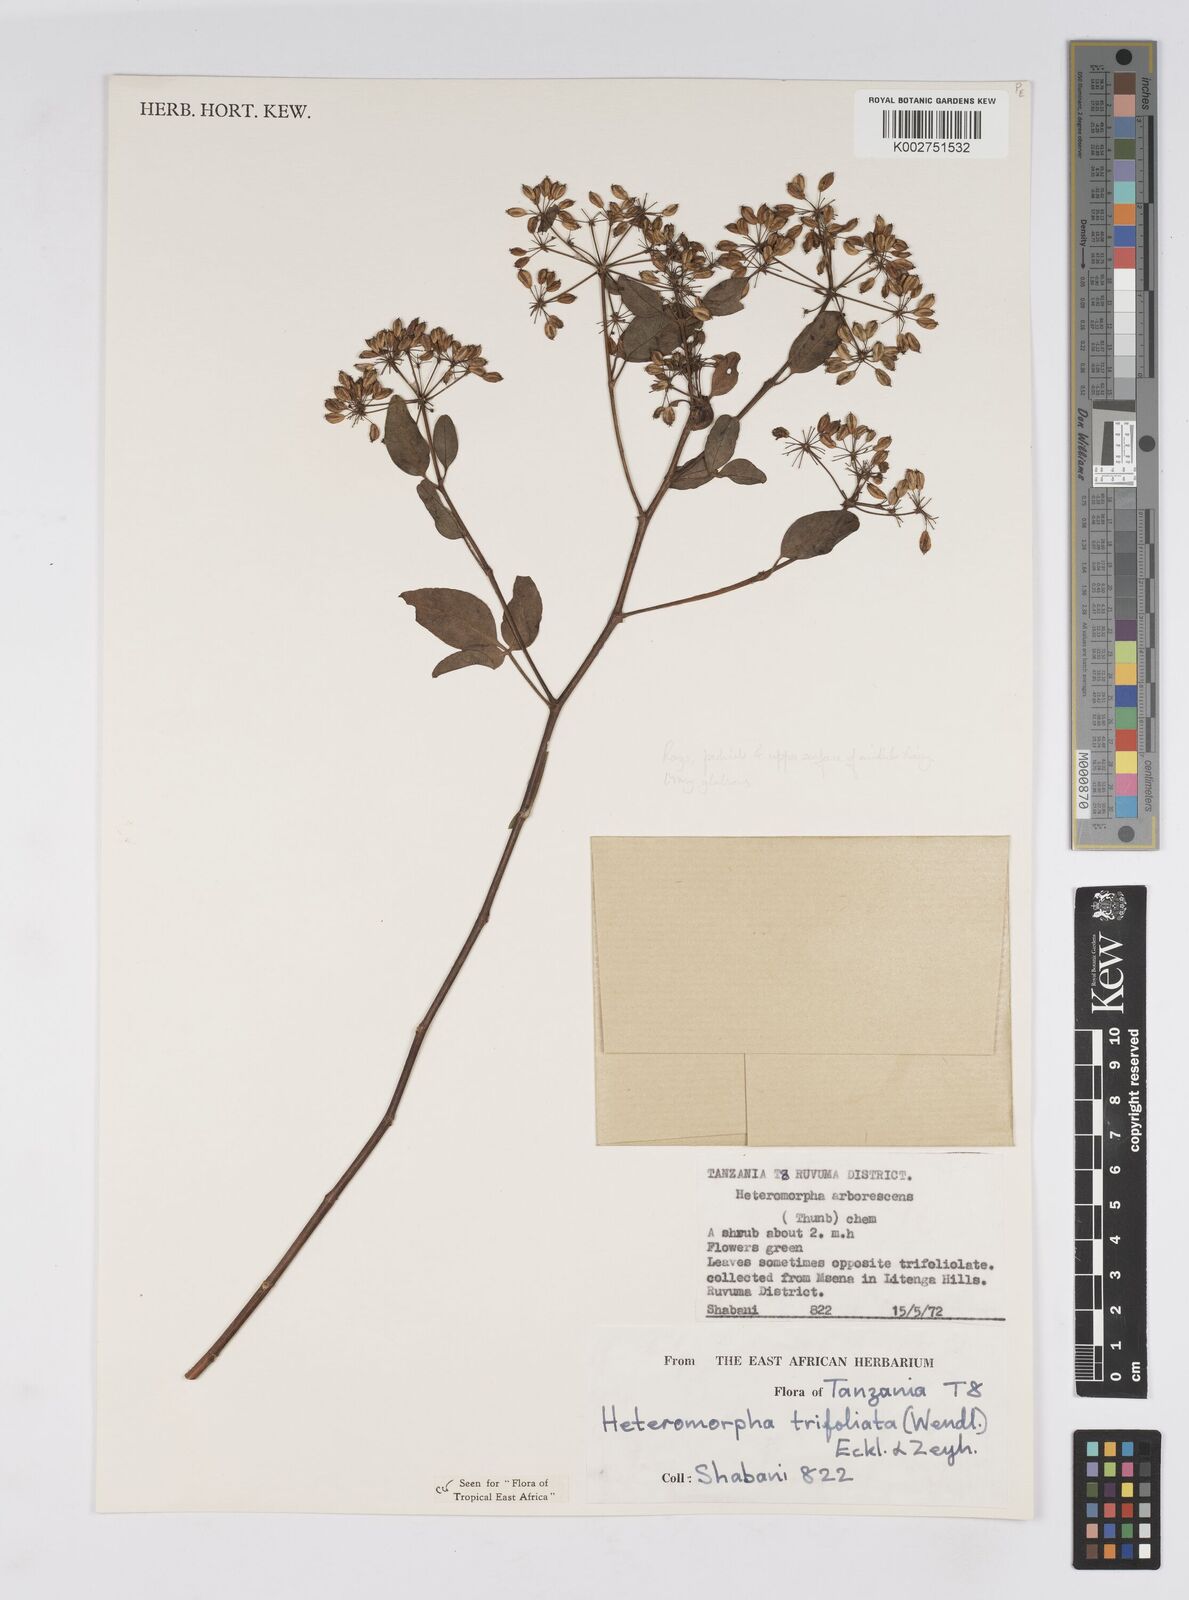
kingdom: Plantae
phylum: Tracheophyta
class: Magnoliopsida
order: Apiales
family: Apiaceae
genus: Heteromorpha
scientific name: Heteromorpha arborescens
